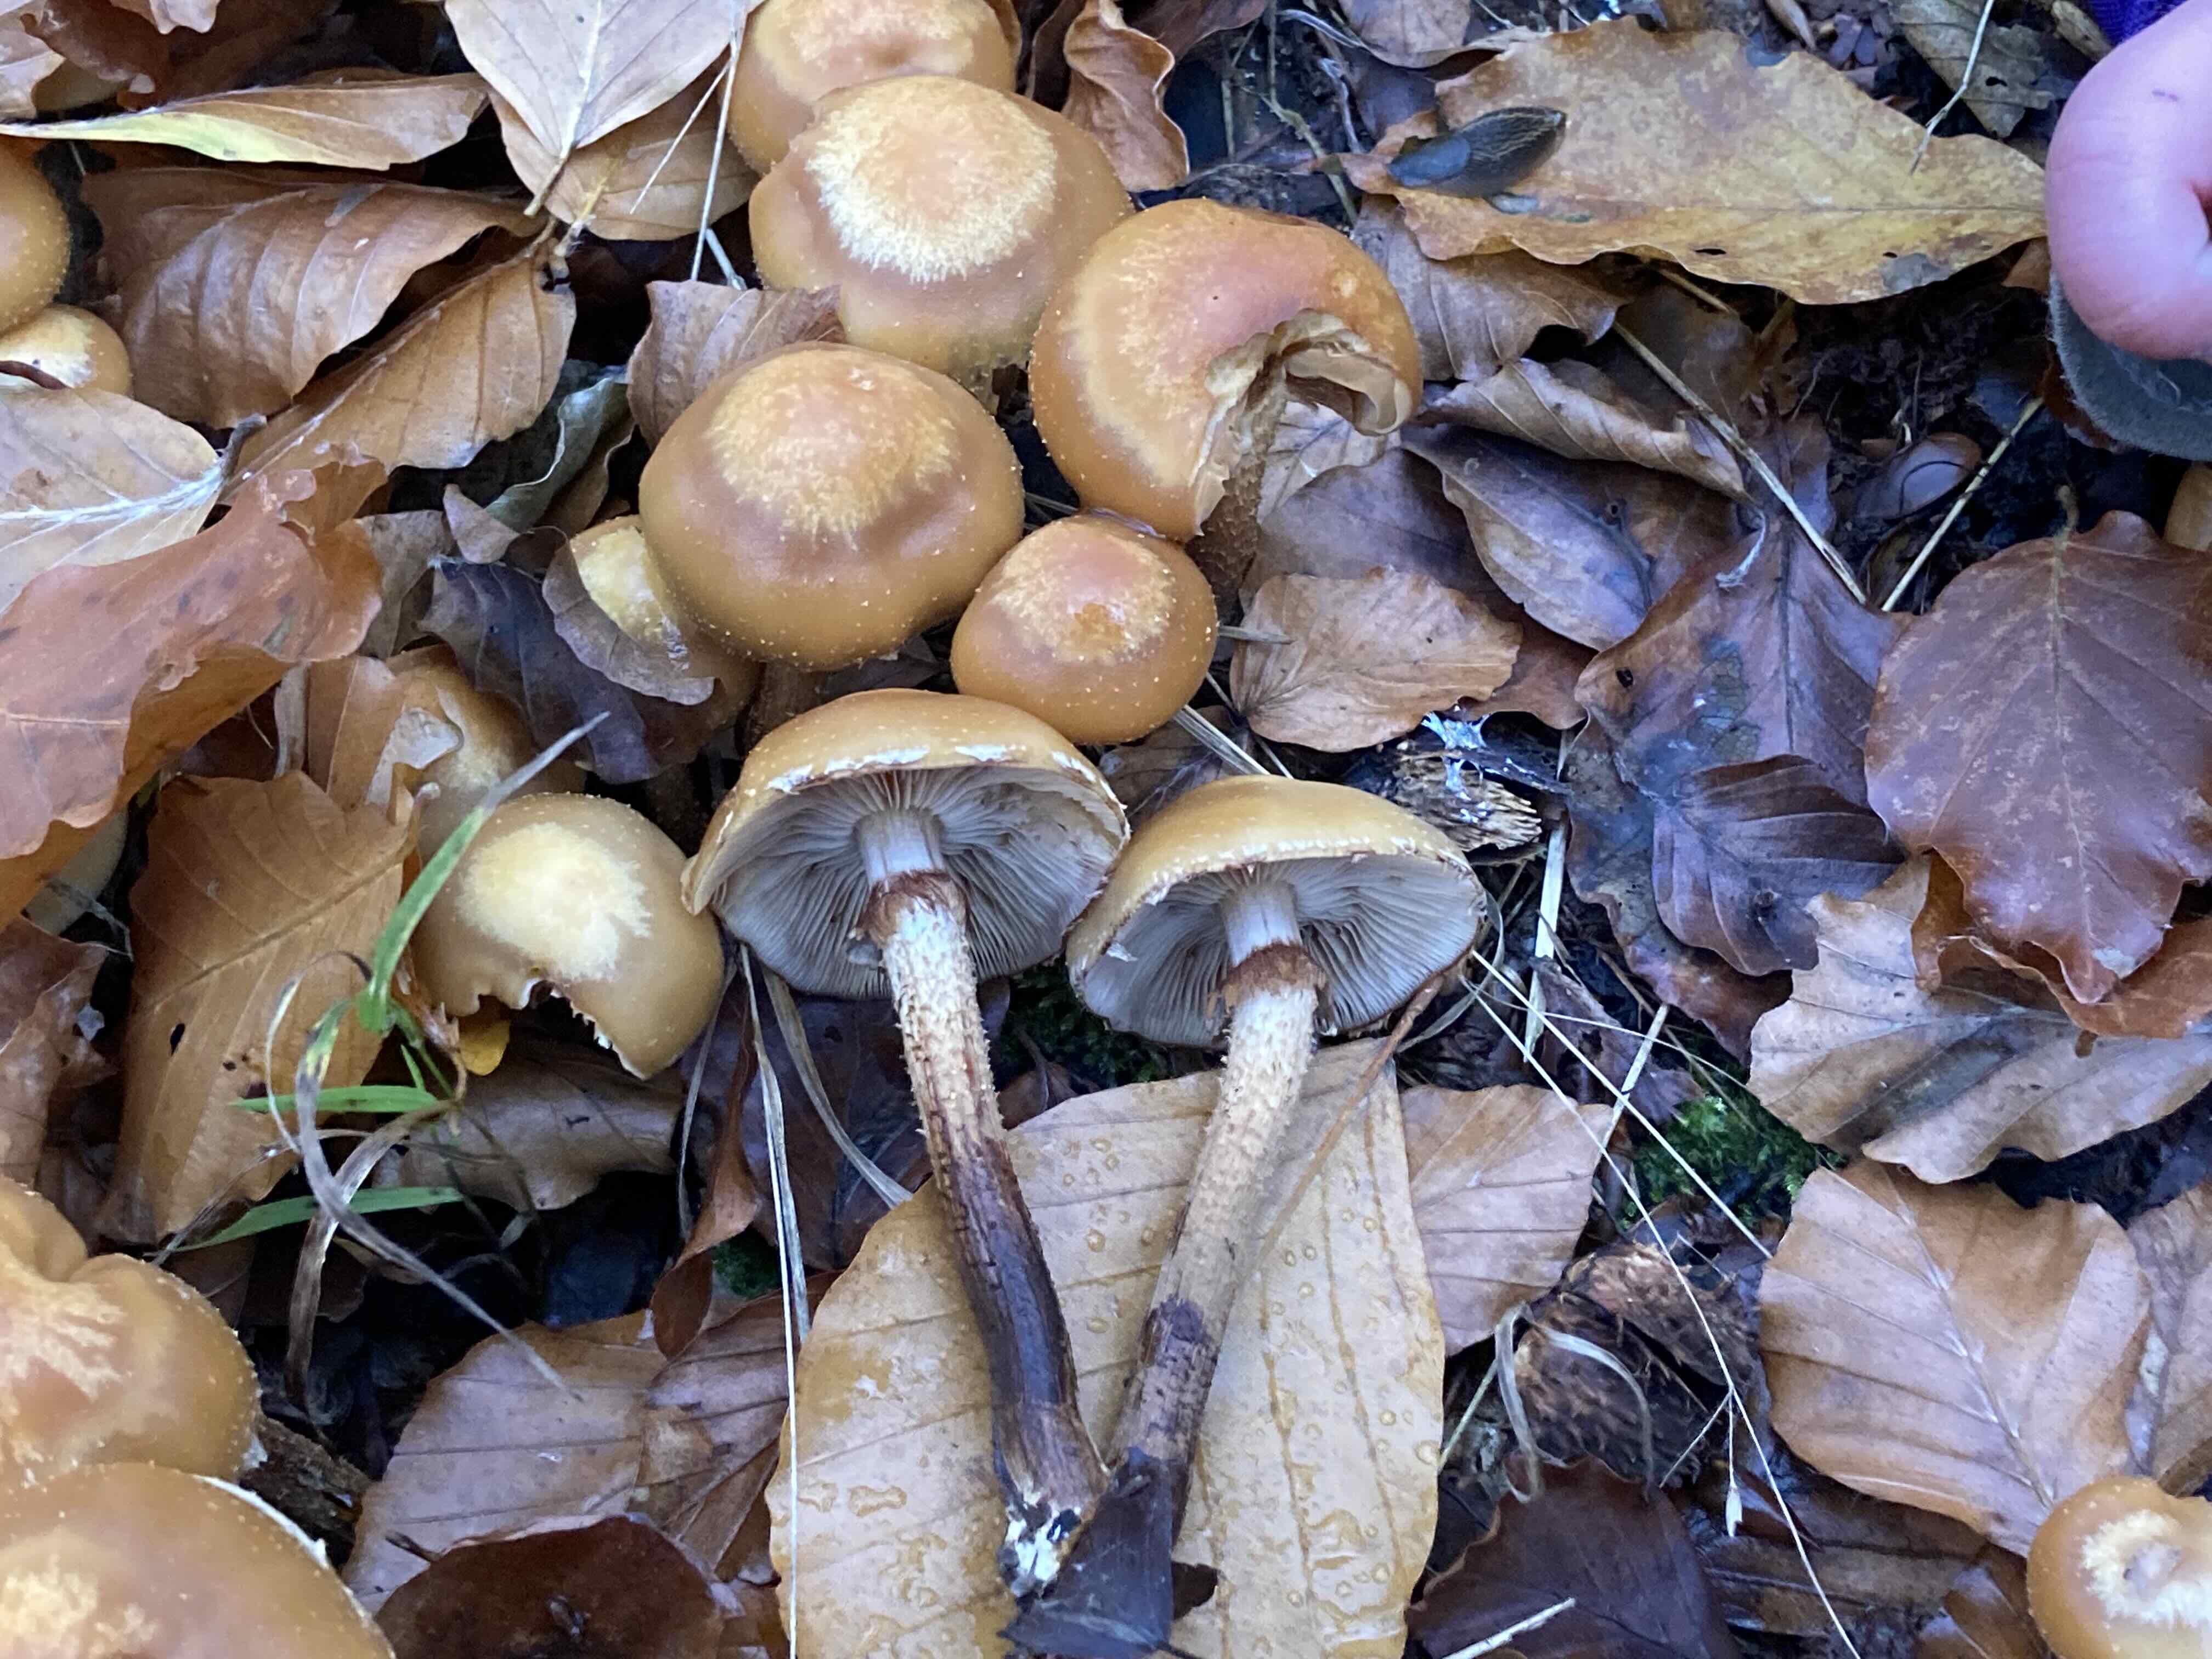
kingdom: Fungi
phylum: Basidiomycota
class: Agaricomycetes
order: Agaricales
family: Strophariaceae
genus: Kuehneromyces
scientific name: Kuehneromyces mutabilis
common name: foranderlig skælhat
